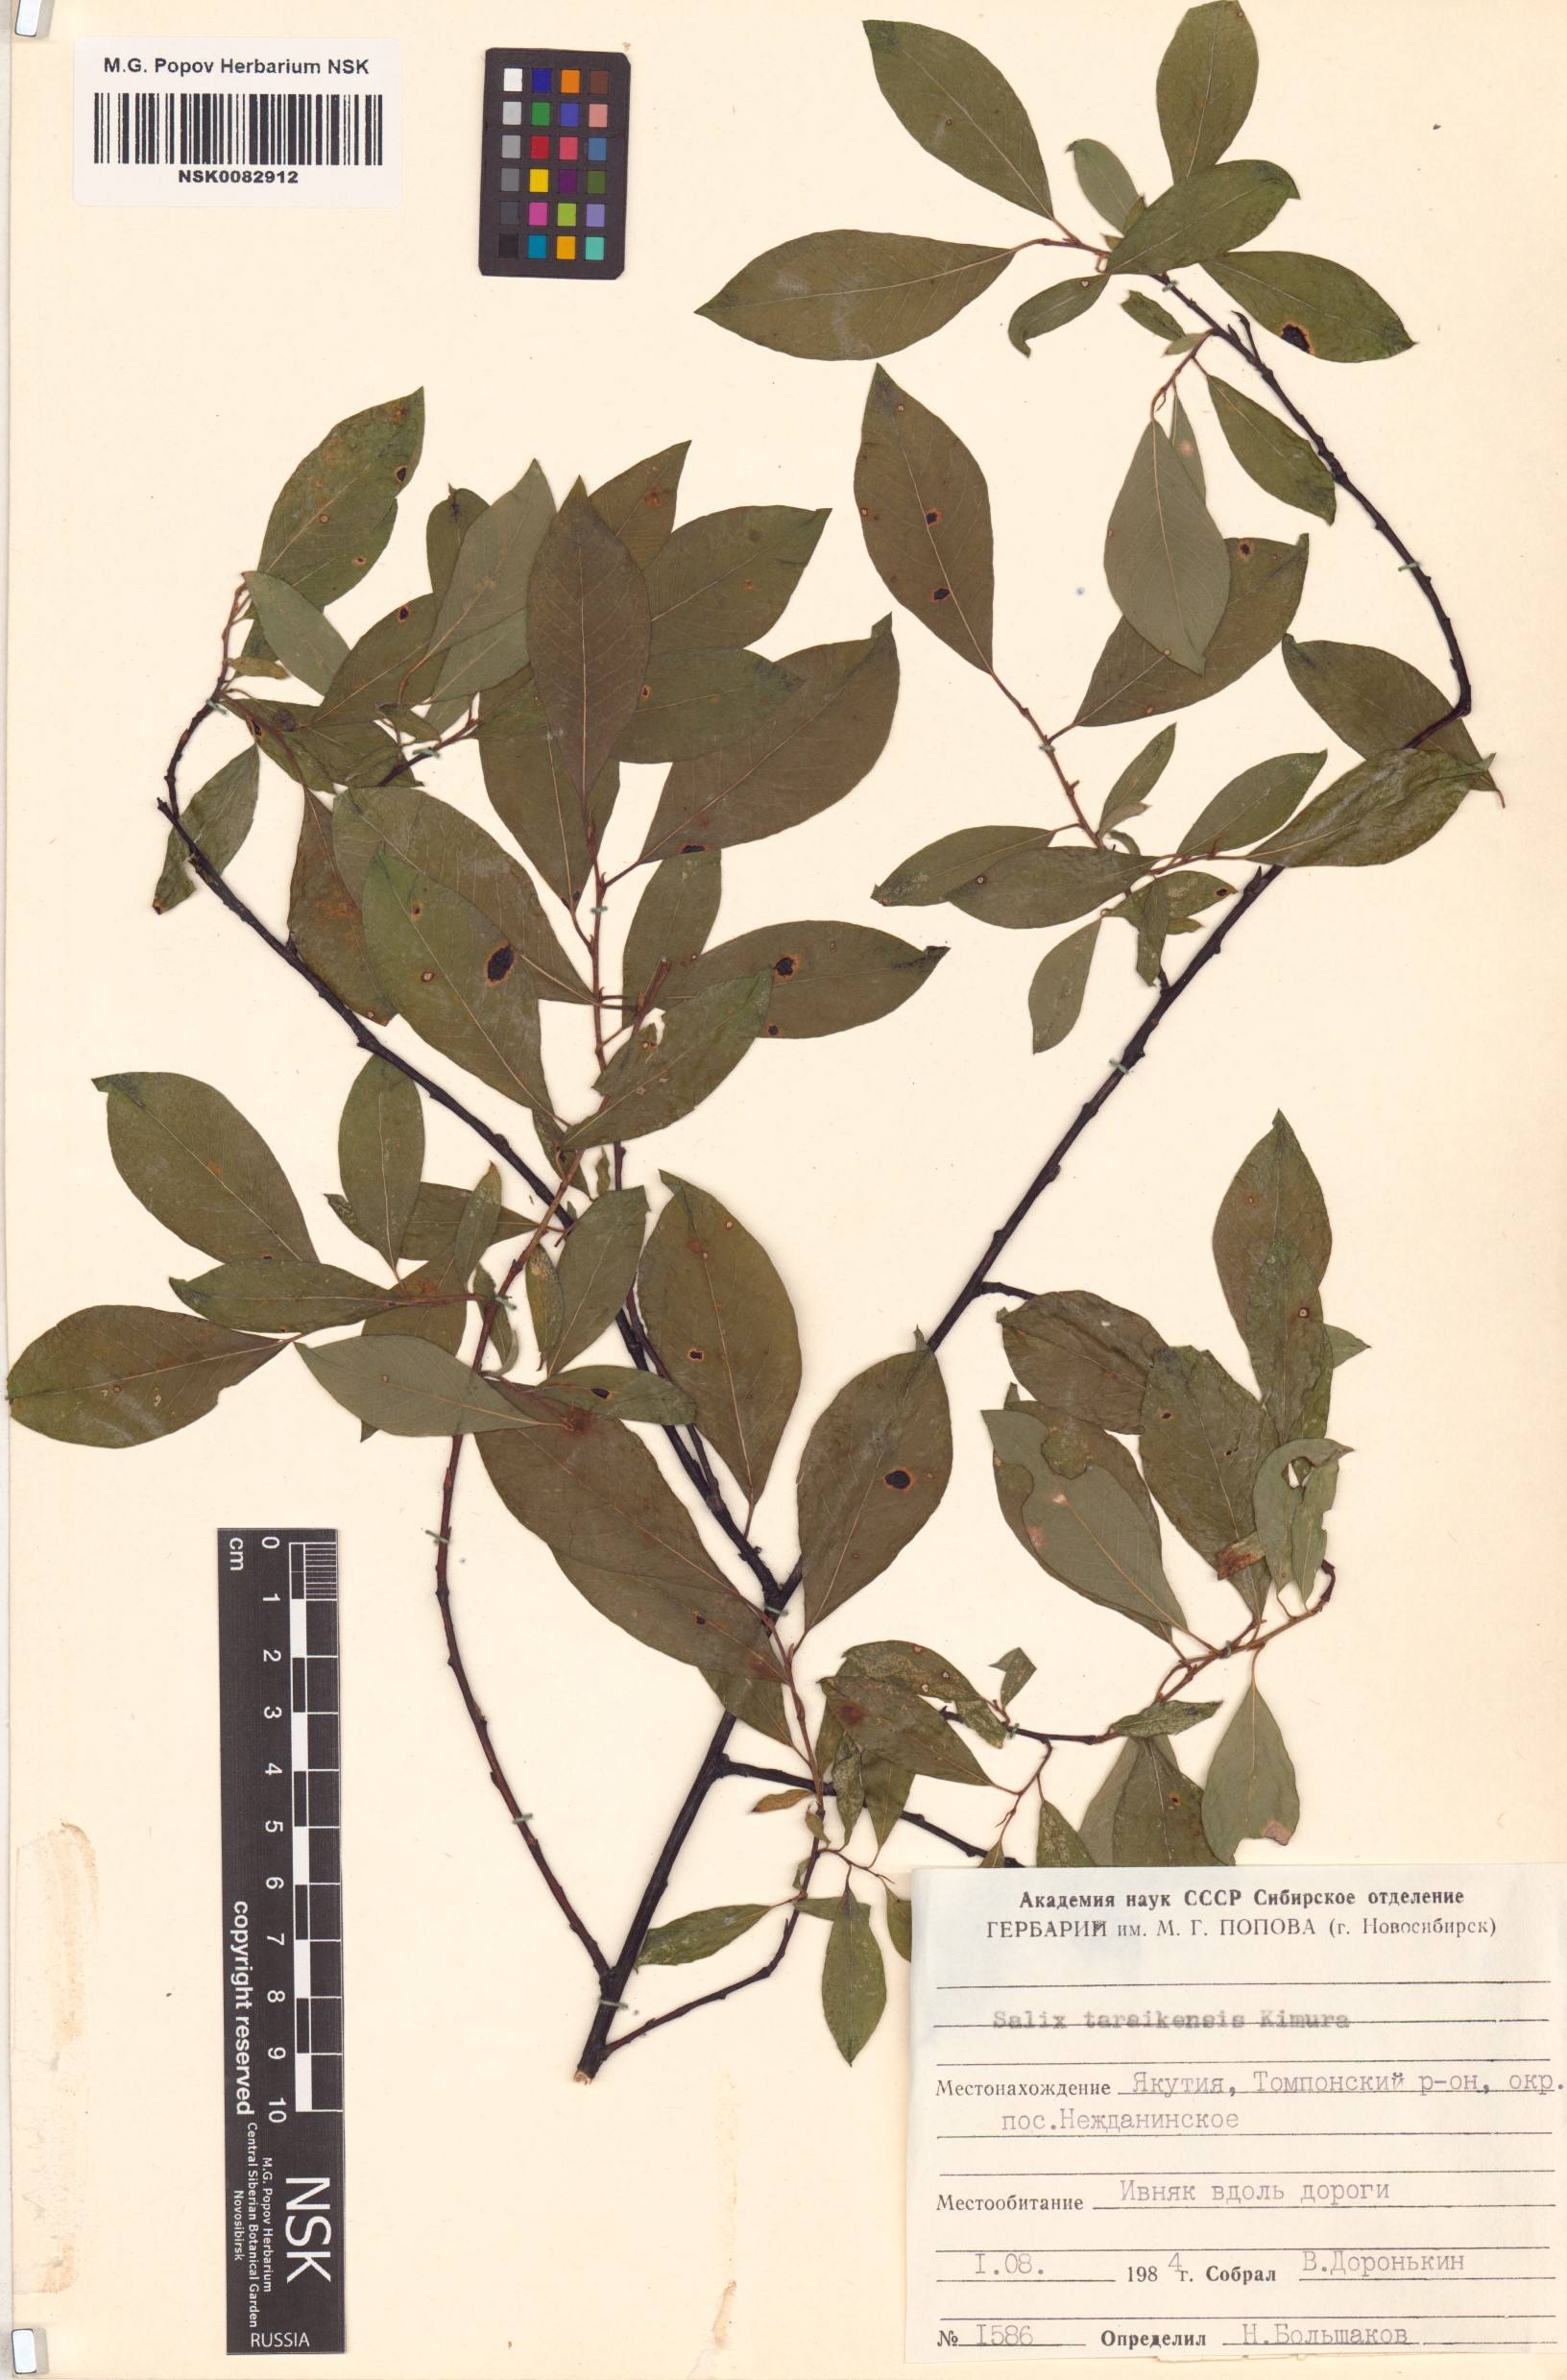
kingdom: Plantae
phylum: Tracheophyta
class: Magnoliopsida
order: Malpighiales
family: Salicaceae
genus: Salix
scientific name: Salix taraikensis
